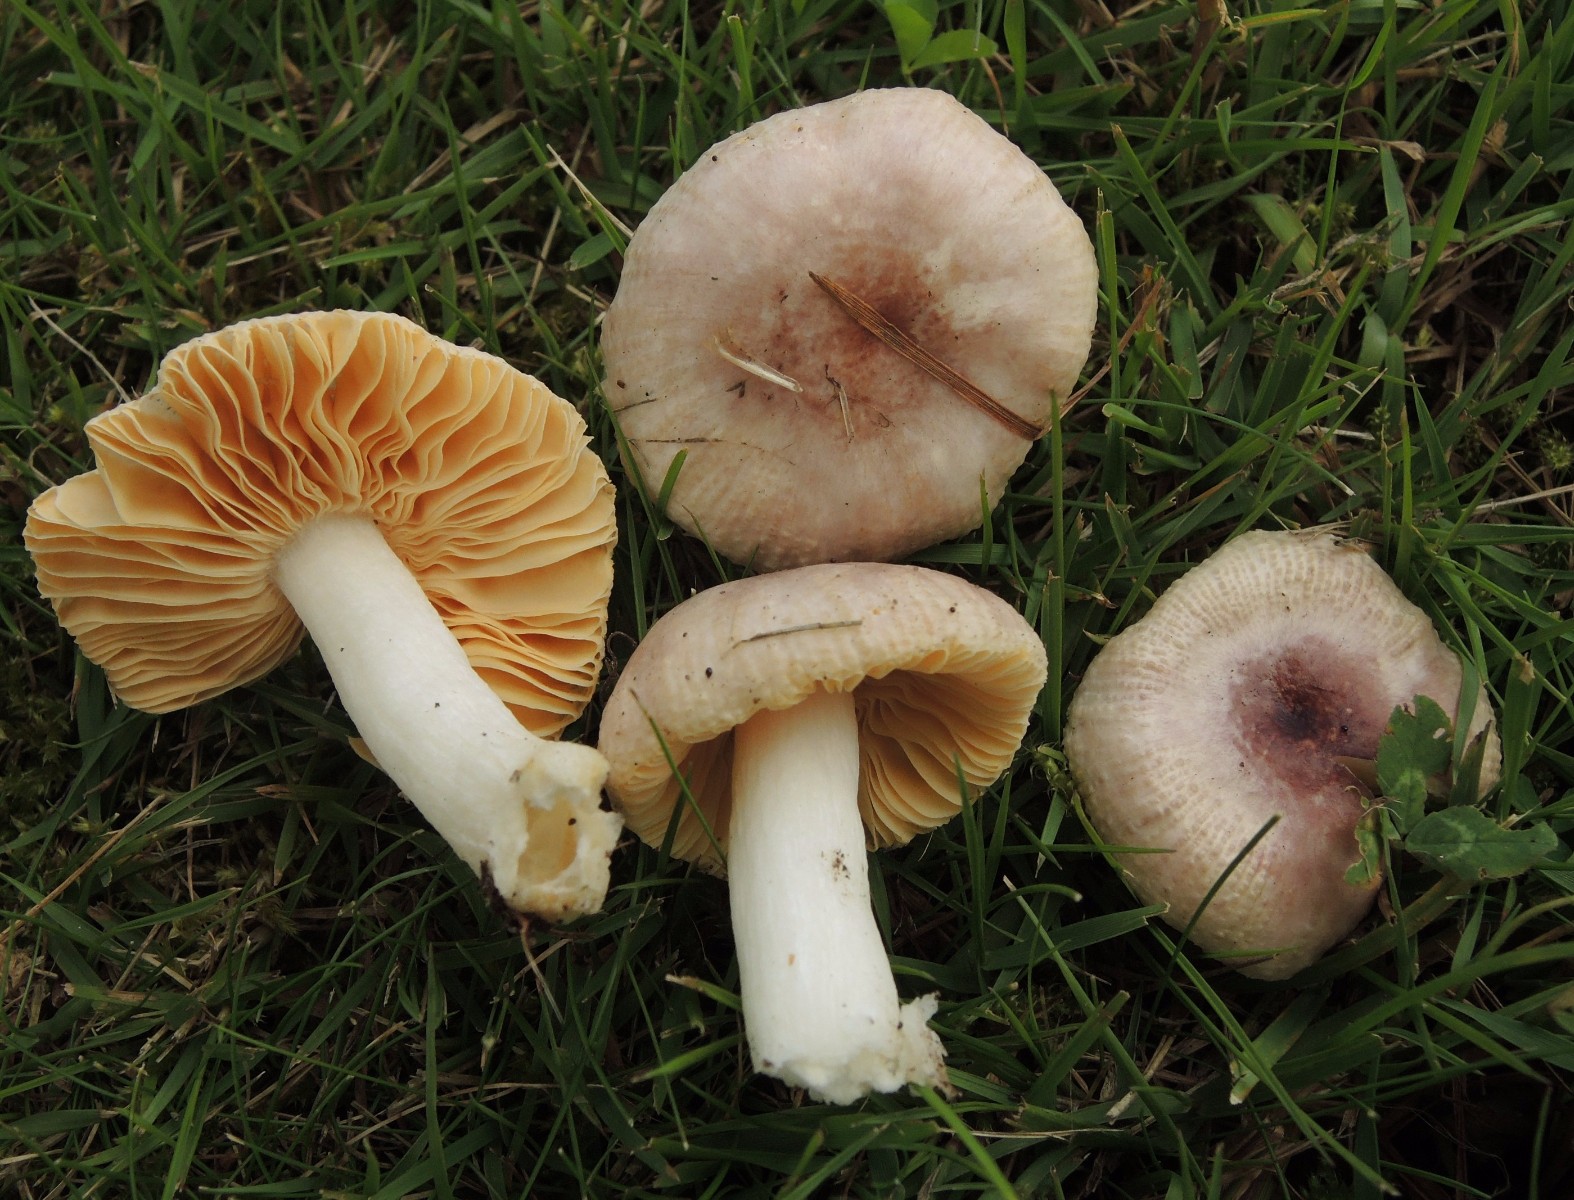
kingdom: Fungi
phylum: Basidiomycota
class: Agaricomycetes
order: Russulales
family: Russulaceae
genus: Russula
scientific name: Russula odorata
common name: duft-skørhat
